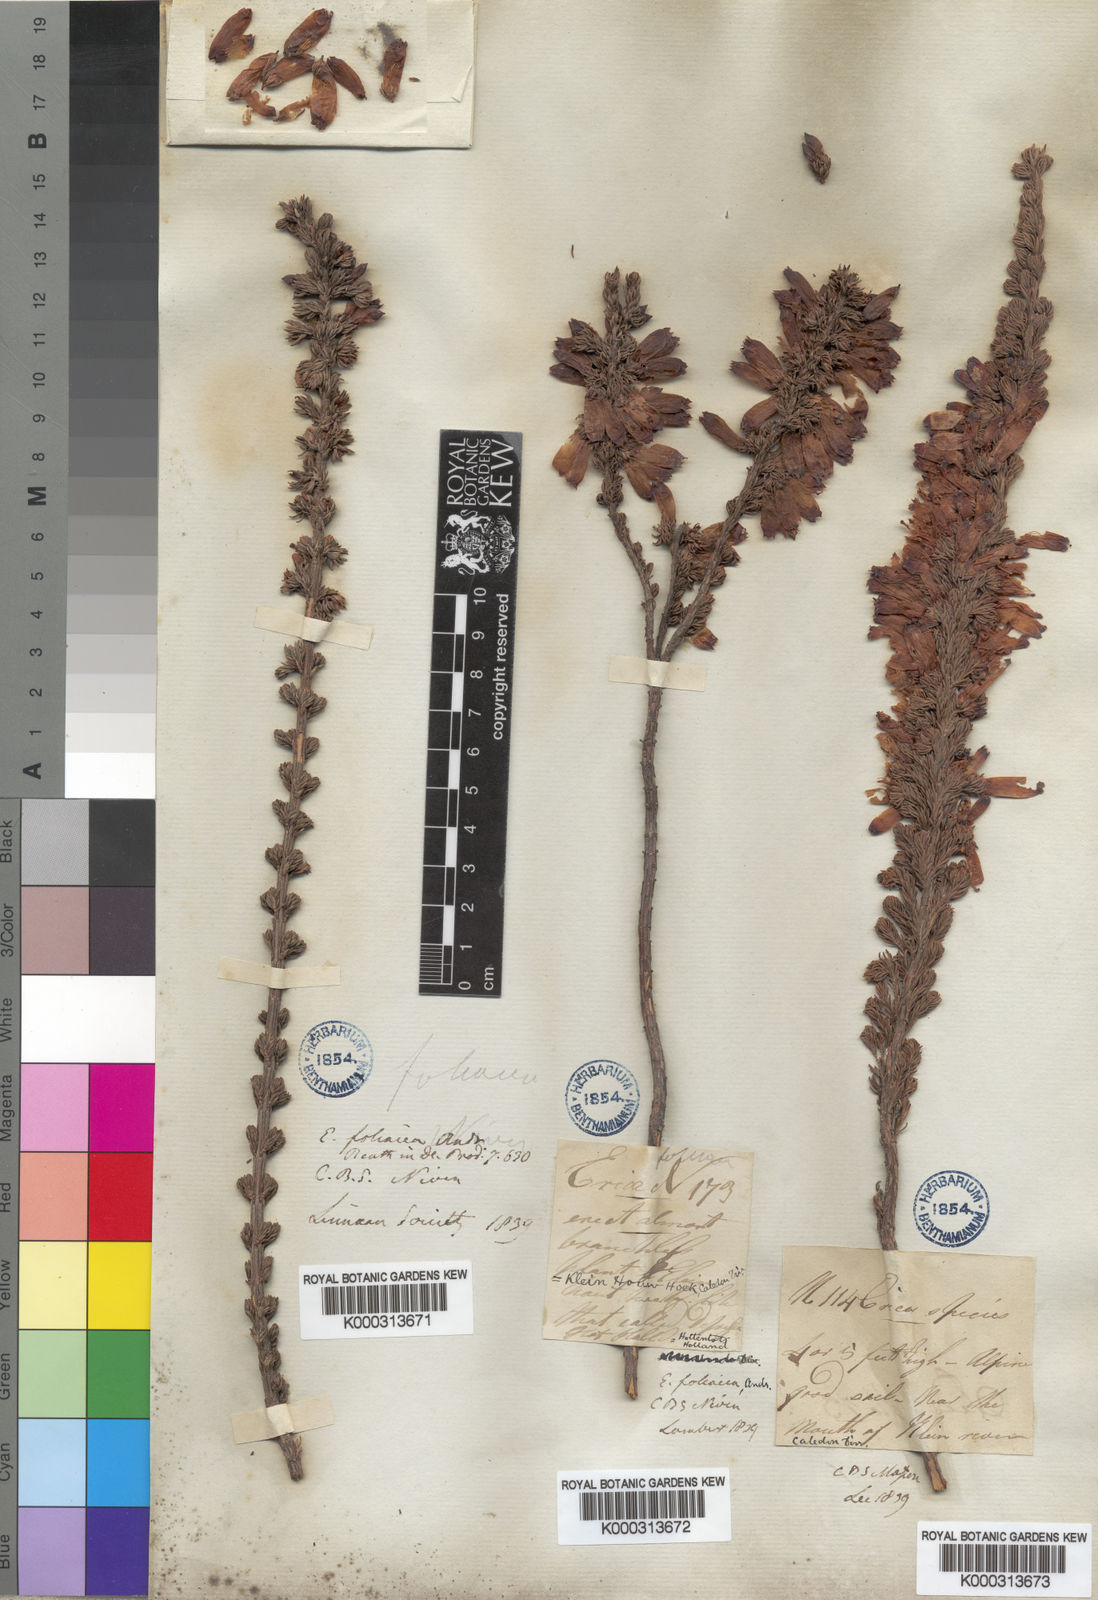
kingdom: Plantae
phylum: Tracheophyta
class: Magnoliopsida
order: Ericales
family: Ericaceae
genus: Erica
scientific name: Erica foliacea
